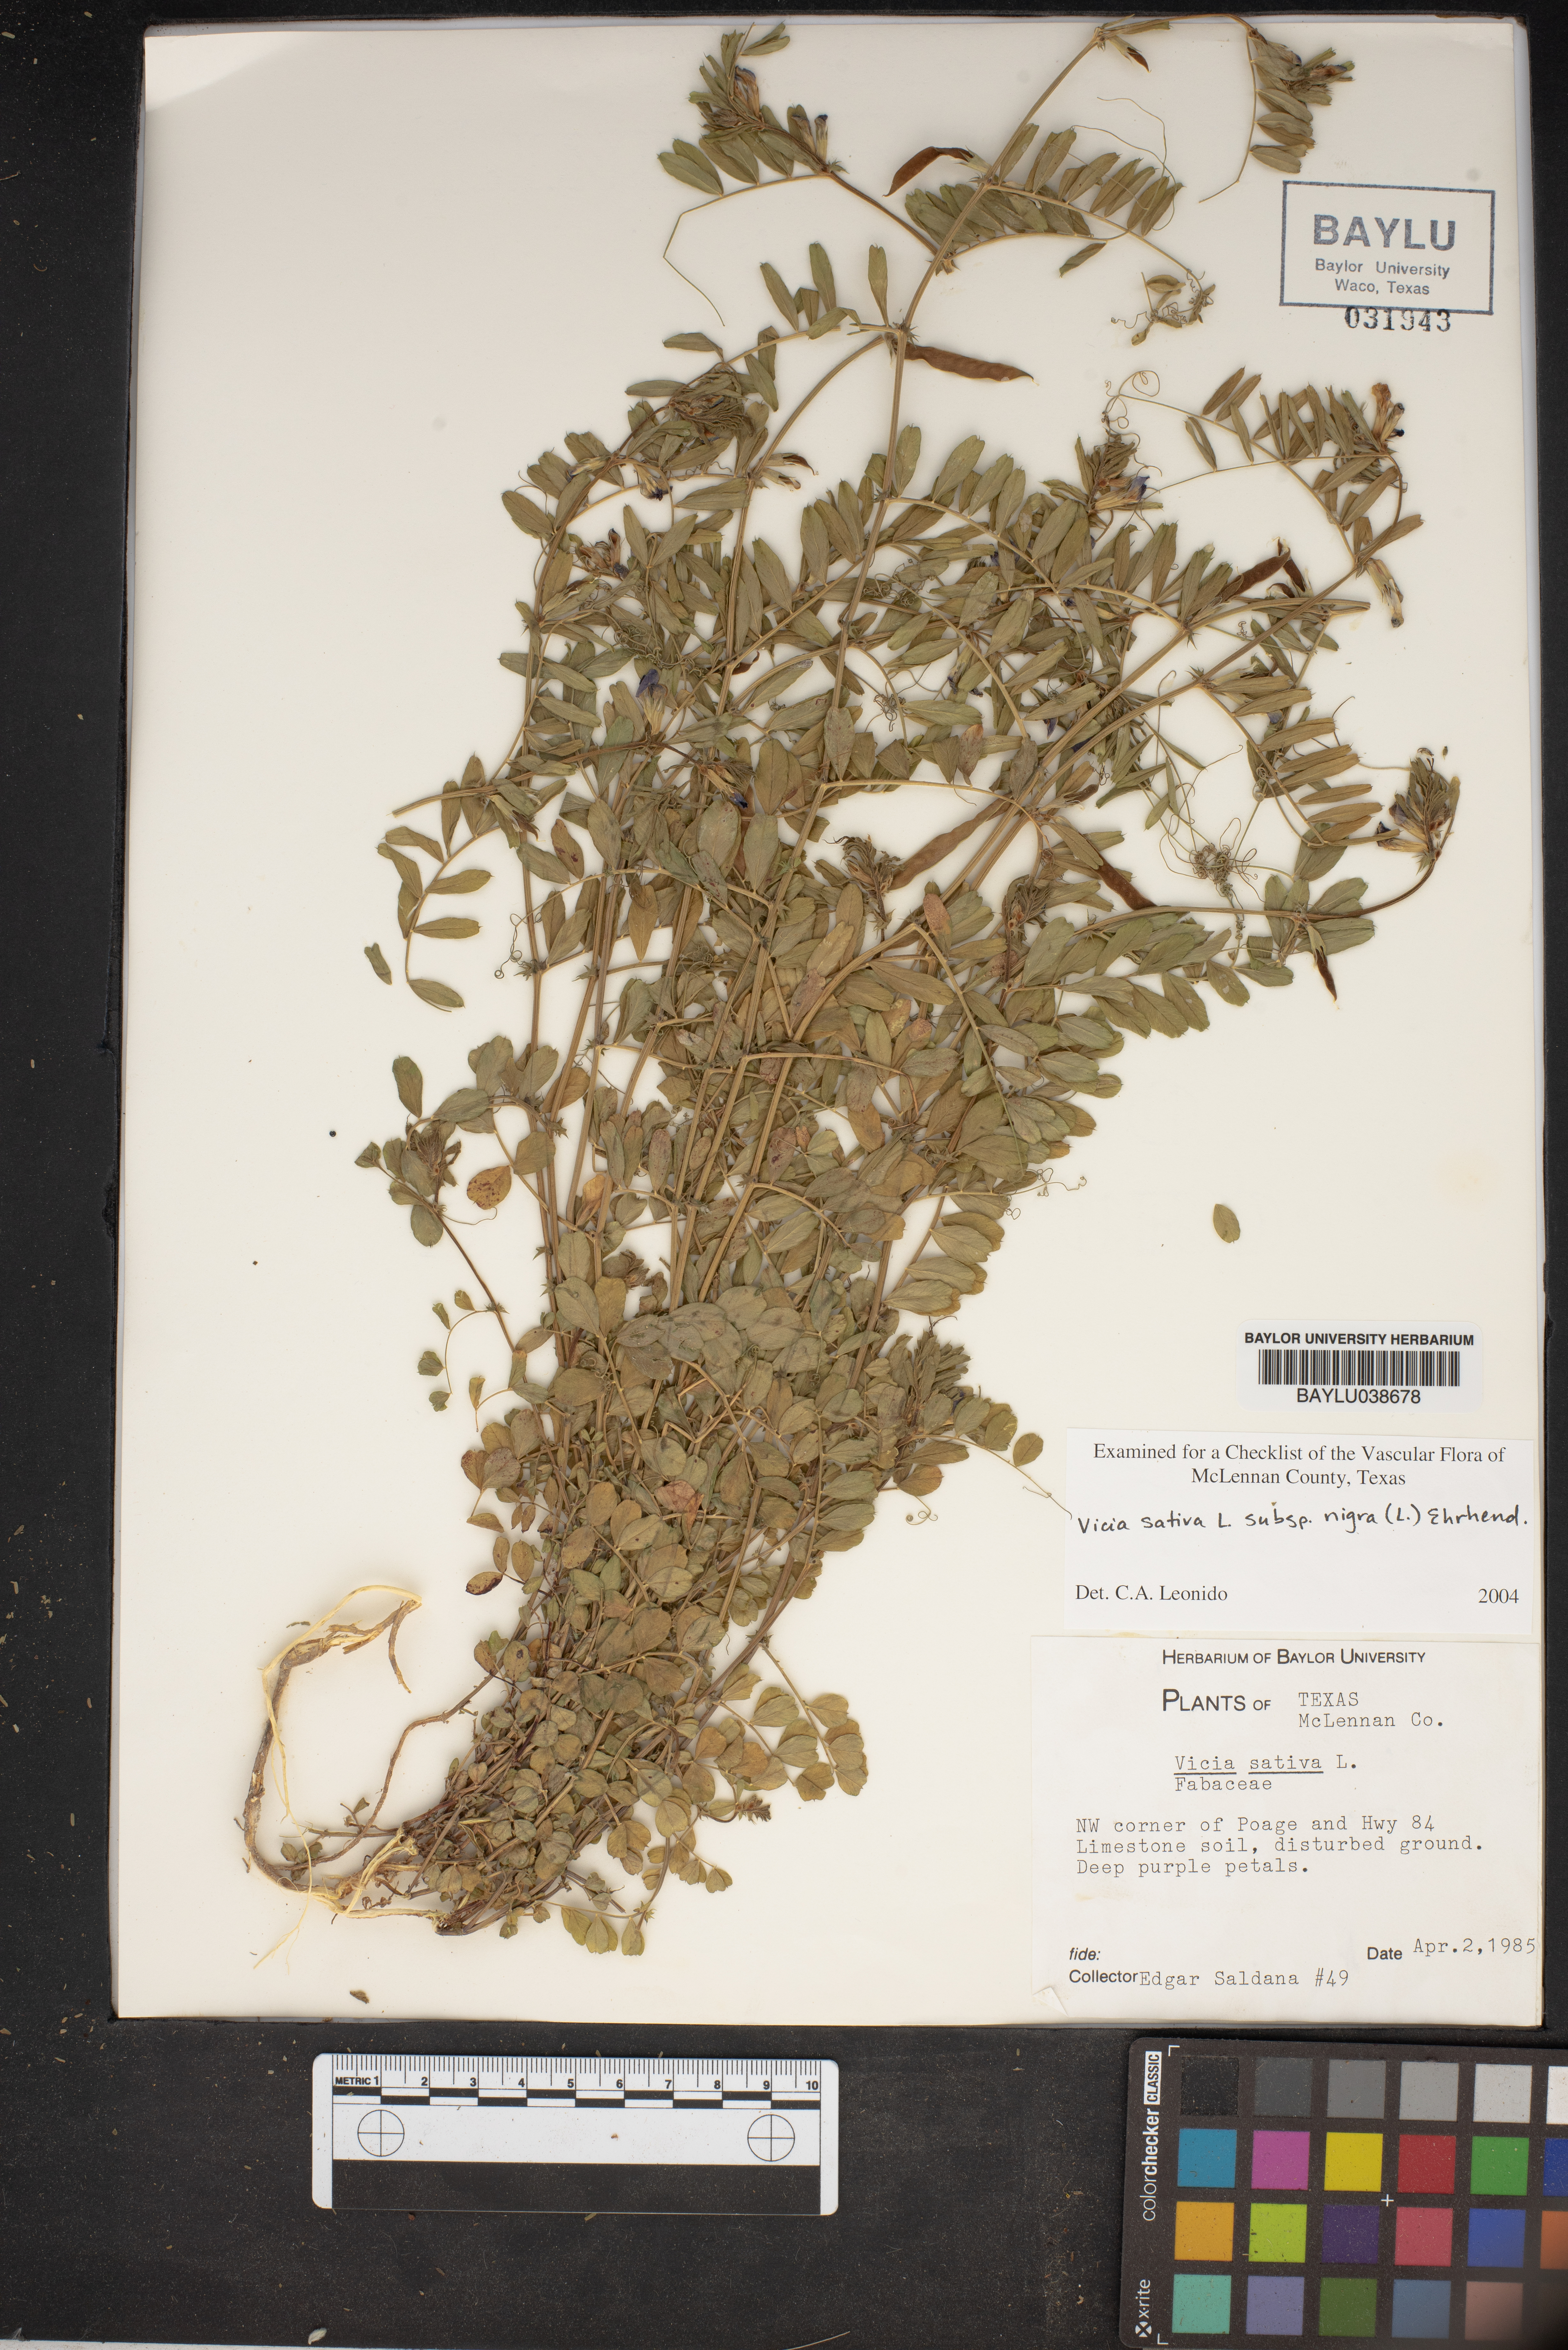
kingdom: Plantae
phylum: Tracheophyta
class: Magnoliopsida
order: Fabales
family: Fabaceae
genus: Vicia
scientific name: Vicia sativa
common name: Garden vetch
